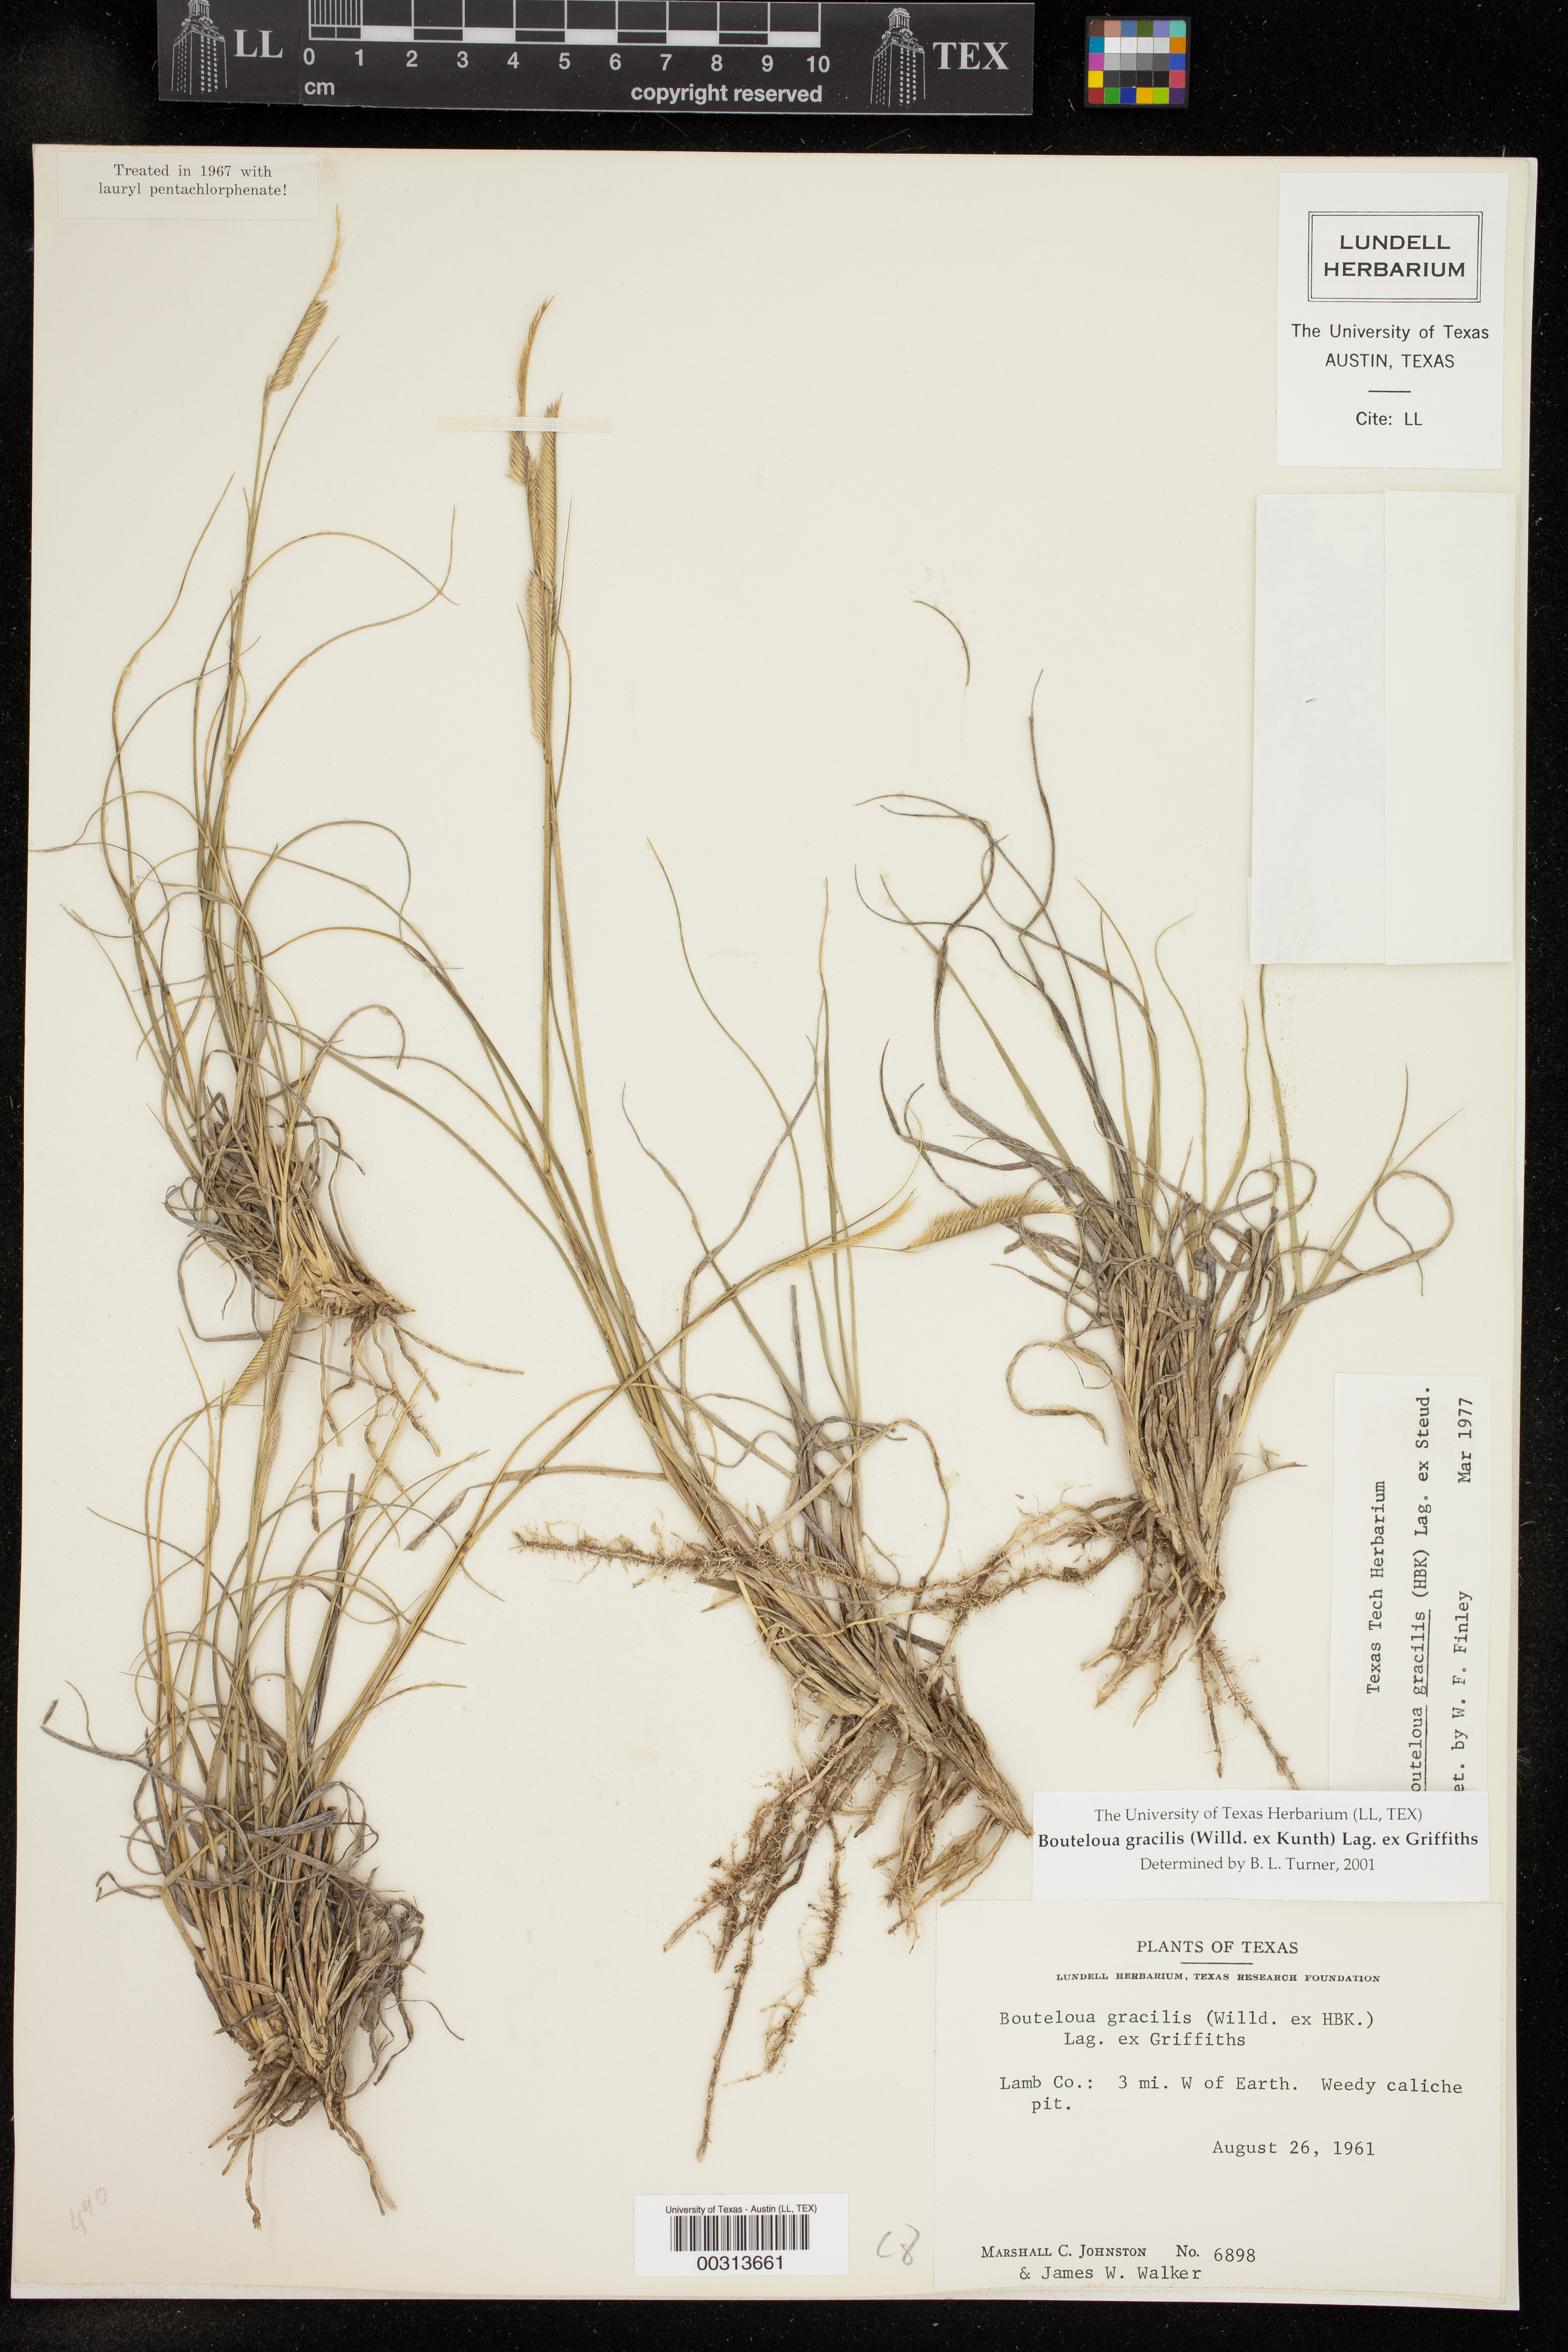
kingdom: Plantae
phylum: Tracheophyta
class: Liliopsida
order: Poales
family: Poaceae
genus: Bouteloua
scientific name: Bouteloua gracilis
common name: Blue grama
